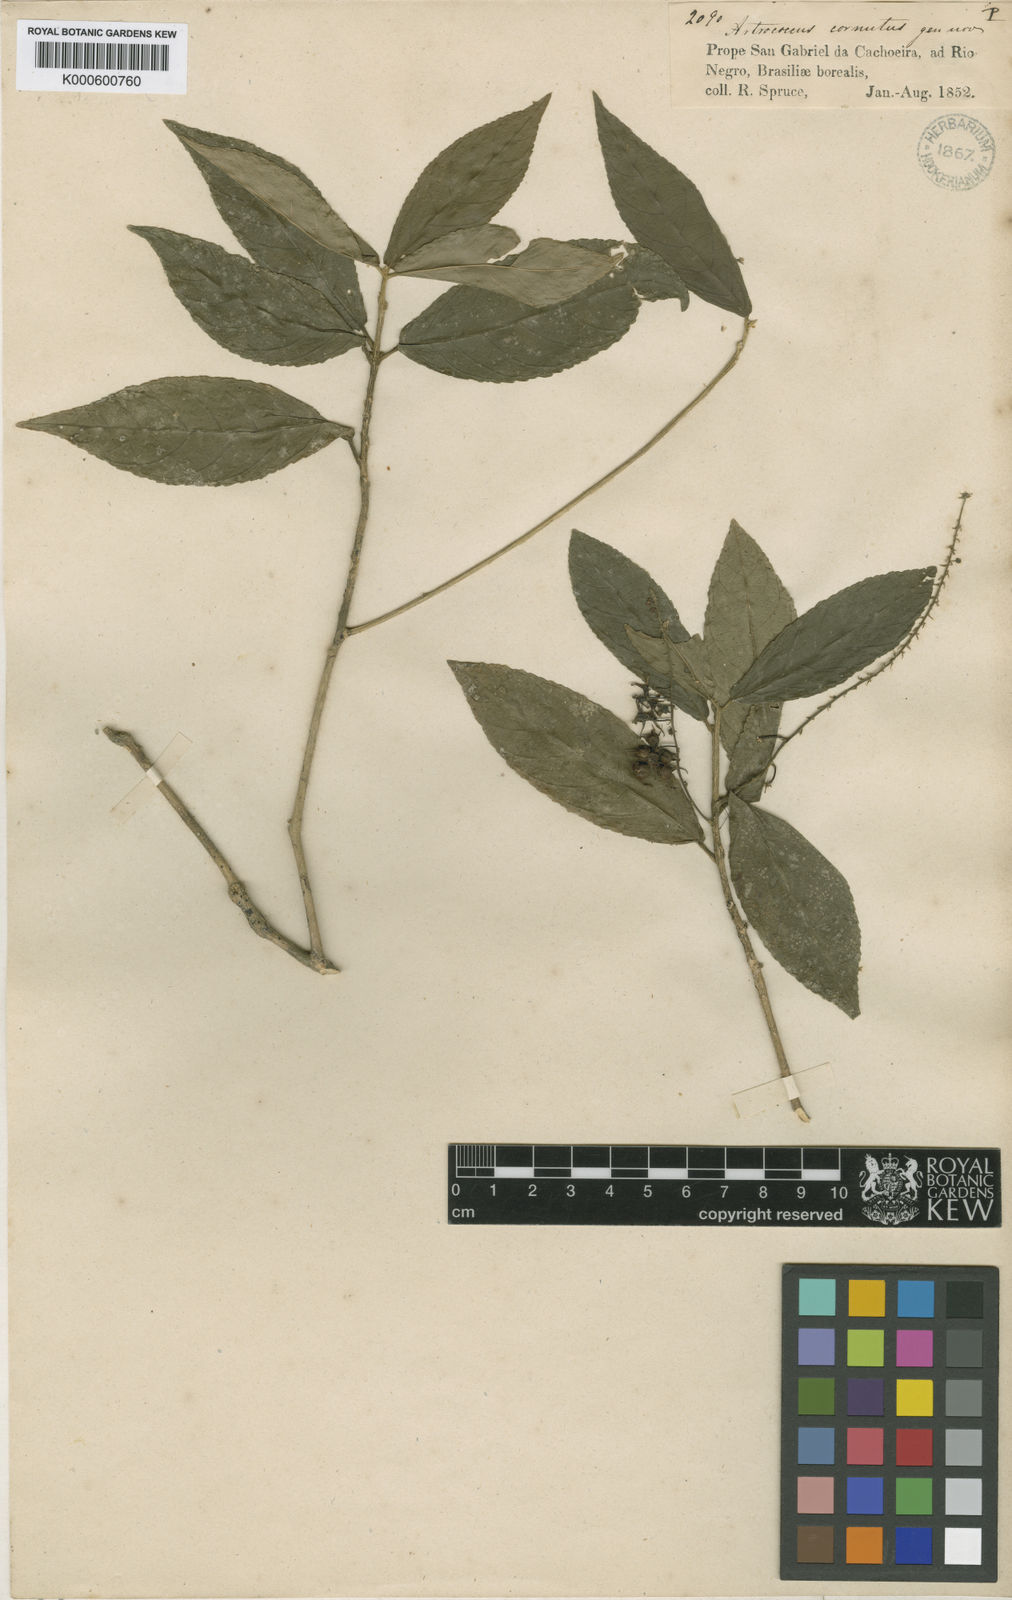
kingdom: Plantae
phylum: Tracheophyta
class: Magnoliopsida
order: Malpighiales
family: Euphorbiaceae
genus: Astrococcus
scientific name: Astrococcus cornutus
